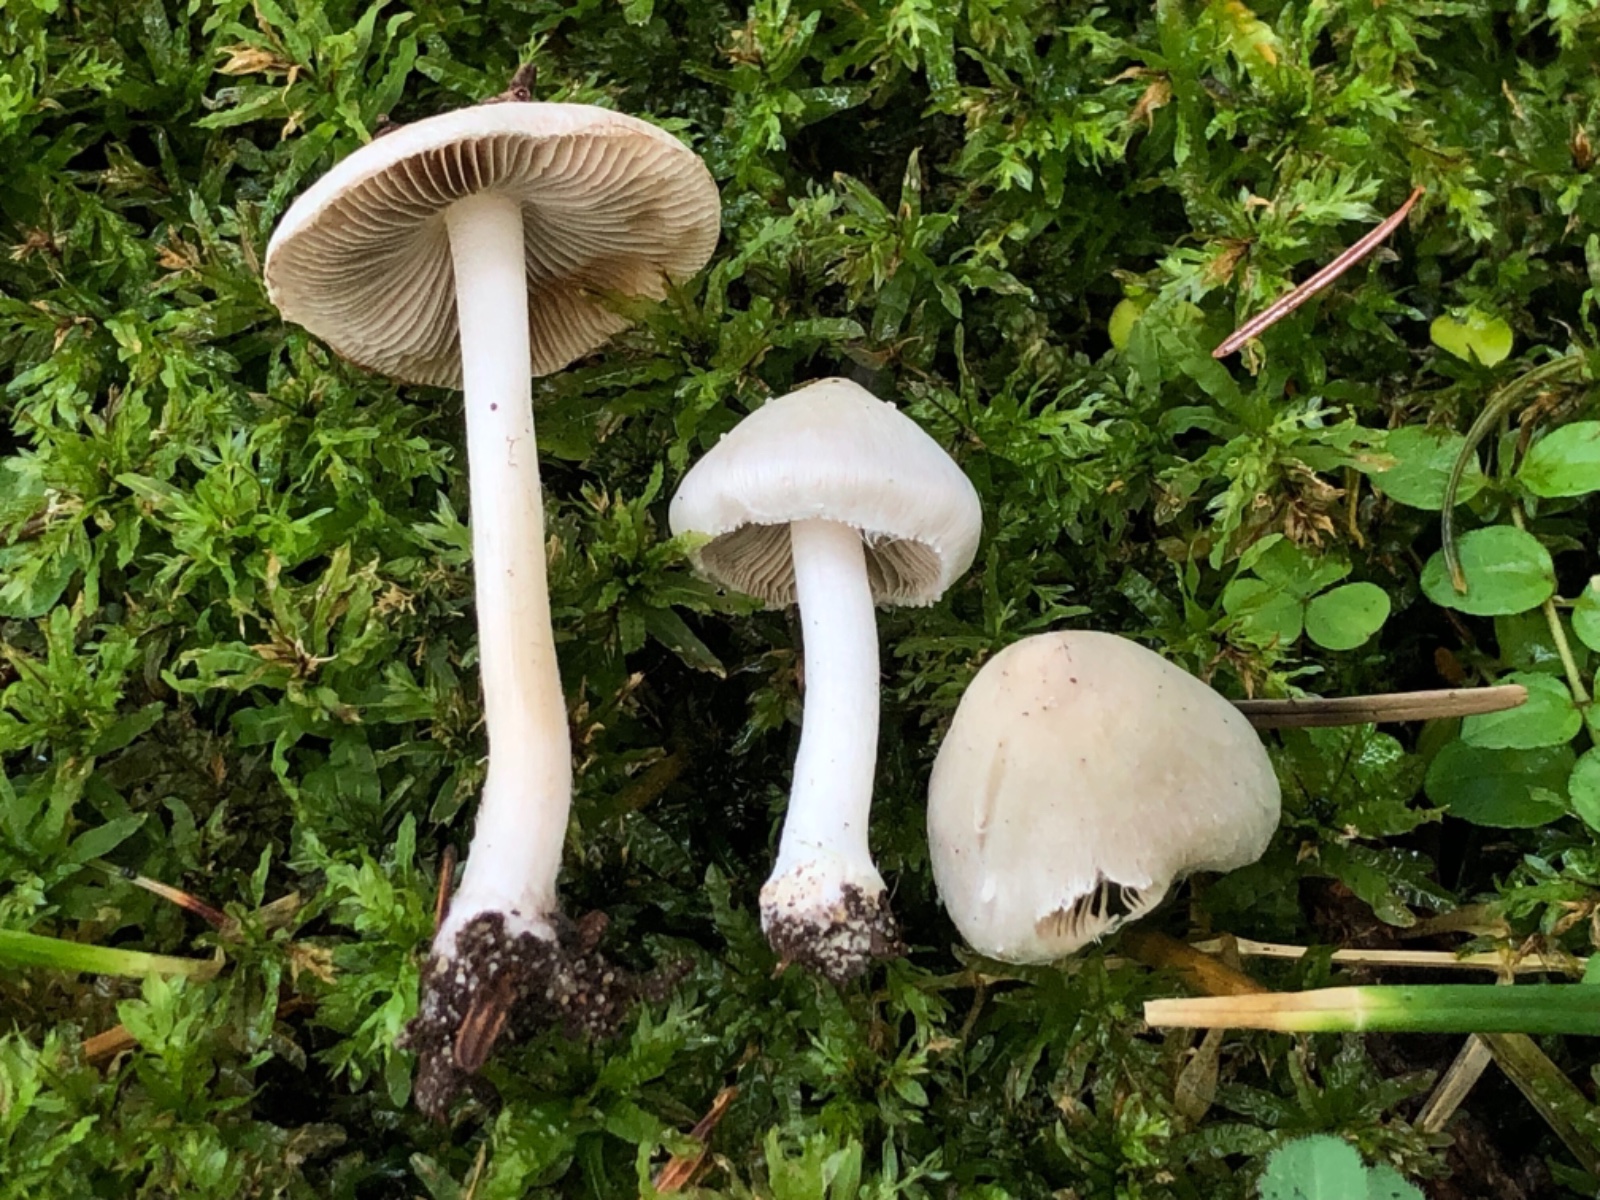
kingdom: Fungi
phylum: Basidiomycota
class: Agaricomycetes
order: Agaricales
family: Inocybaceae
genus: Inocybe
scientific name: Inocybe
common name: almindelig trævlhat
